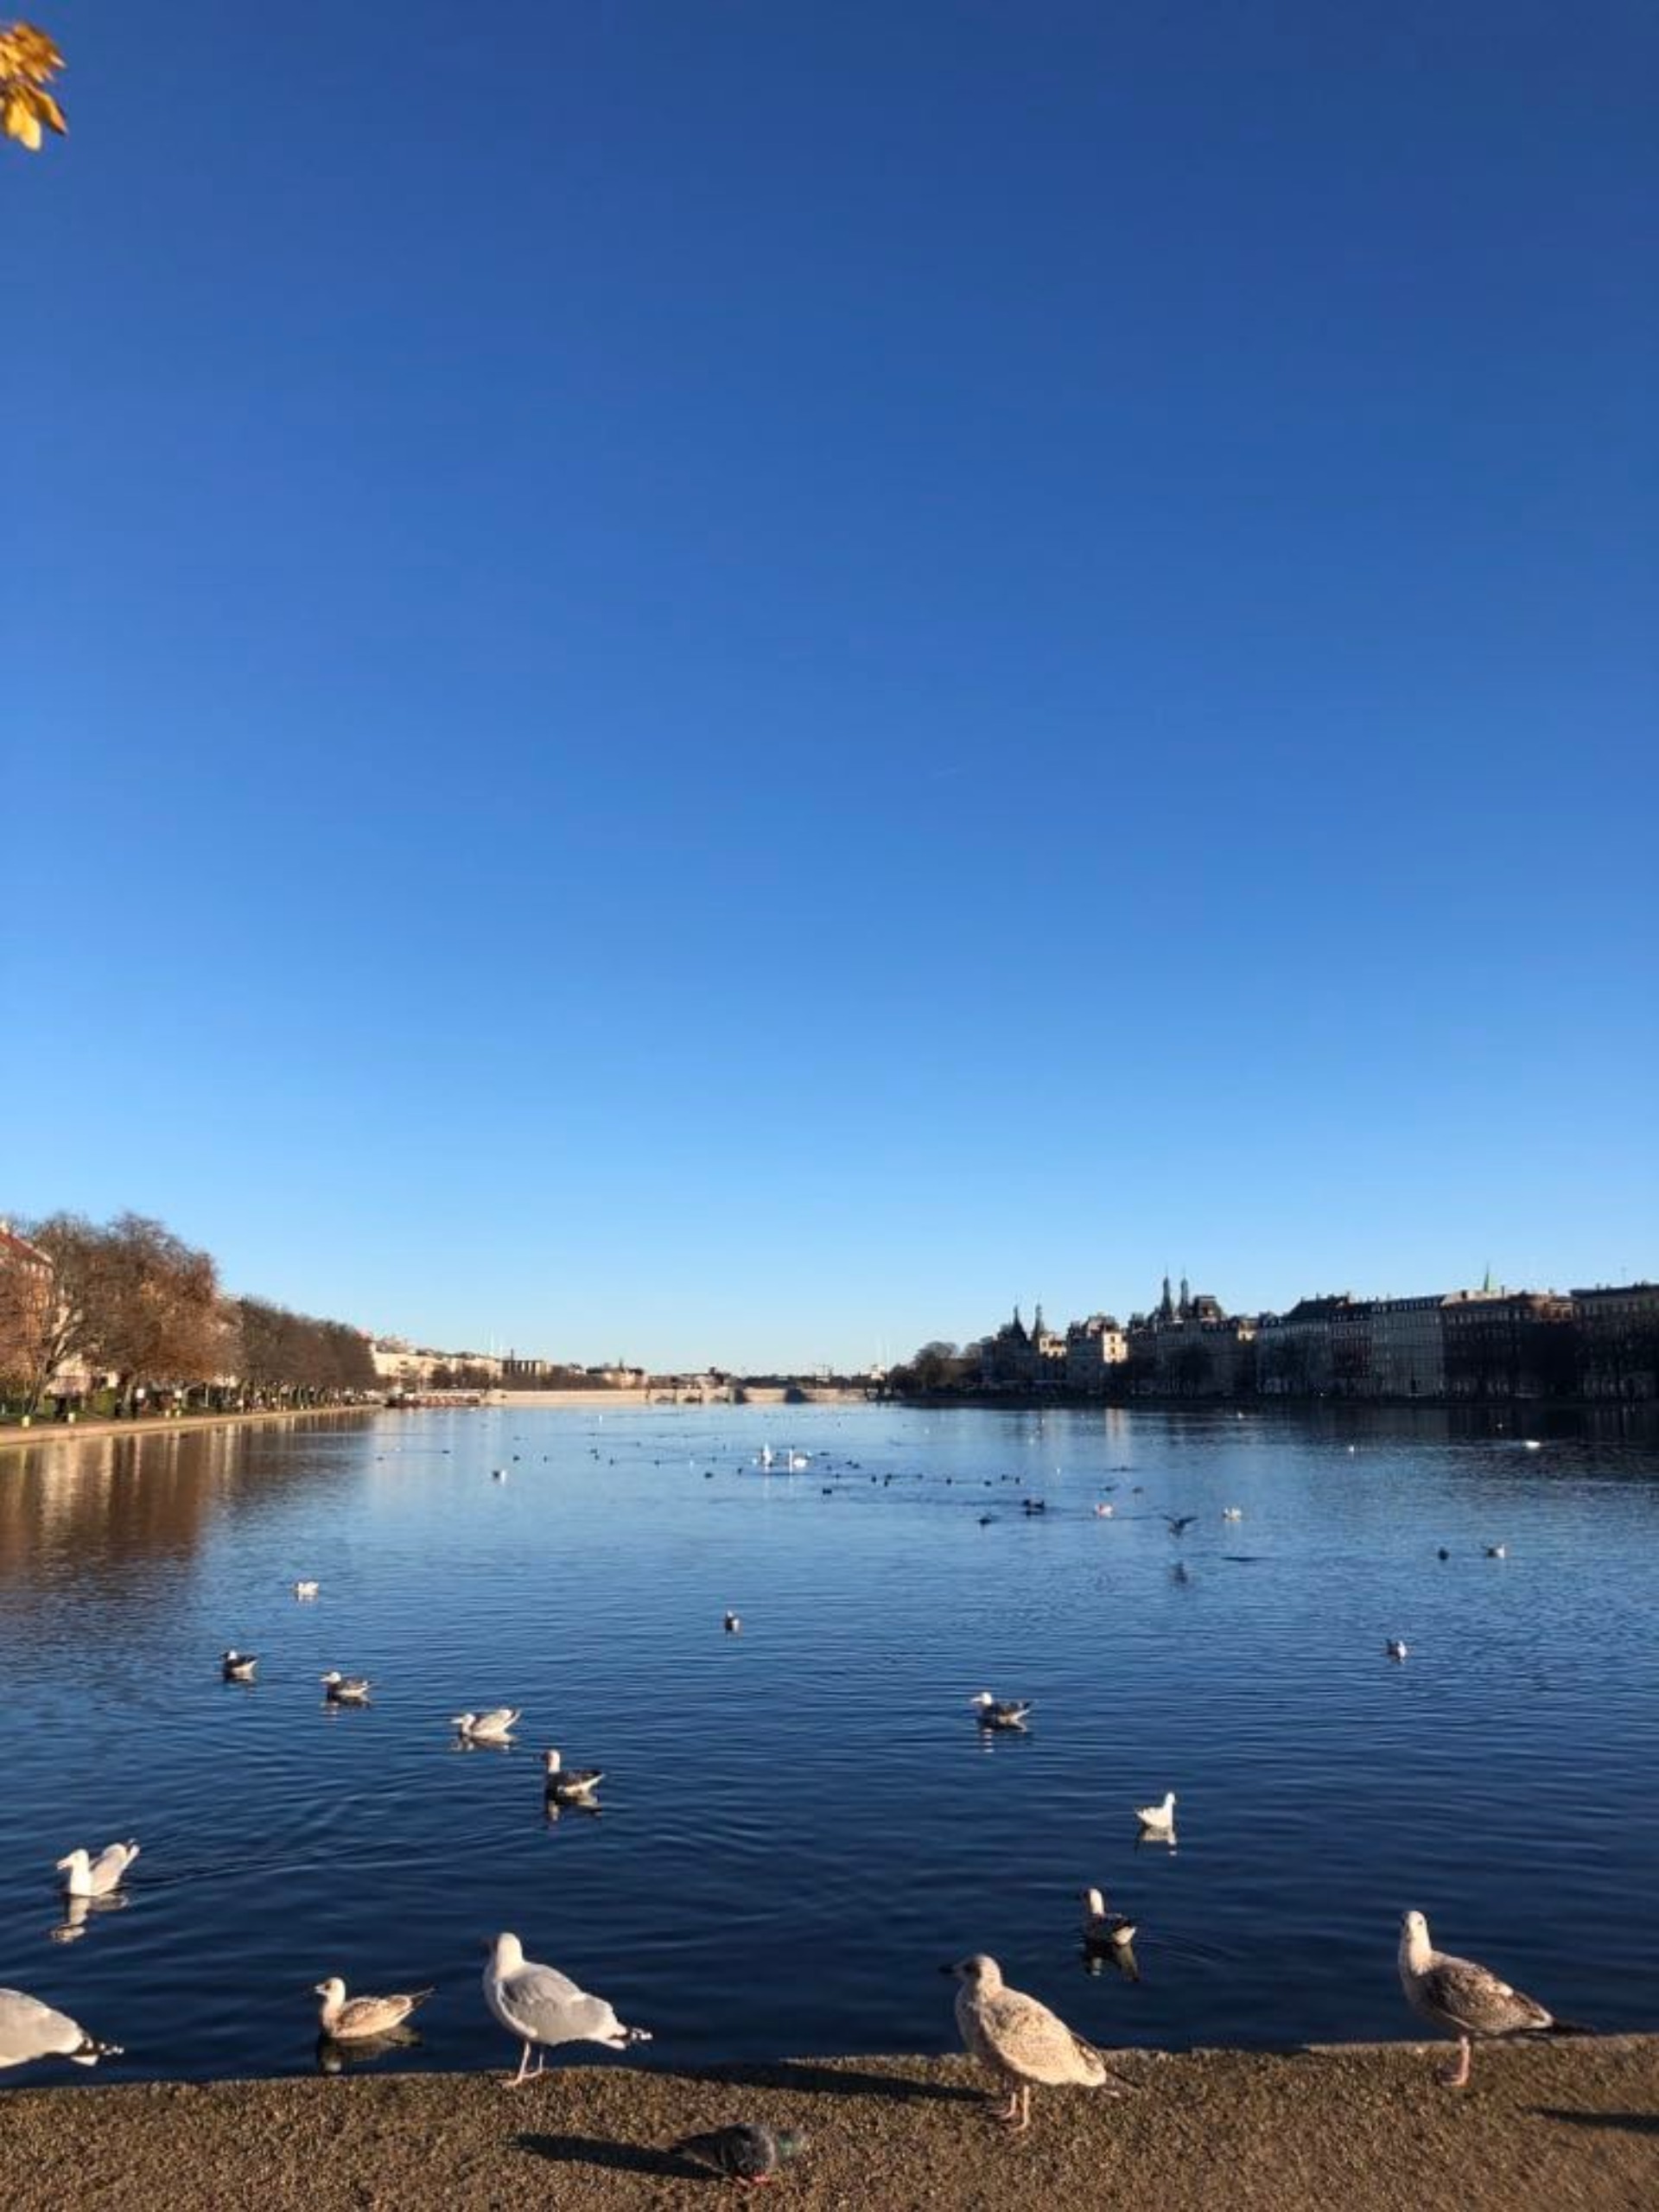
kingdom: Animalia
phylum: Chordata
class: Aves
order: Charadriiformes
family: Laridae
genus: Larus
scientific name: Larus argentatus
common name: Sølvmåge
